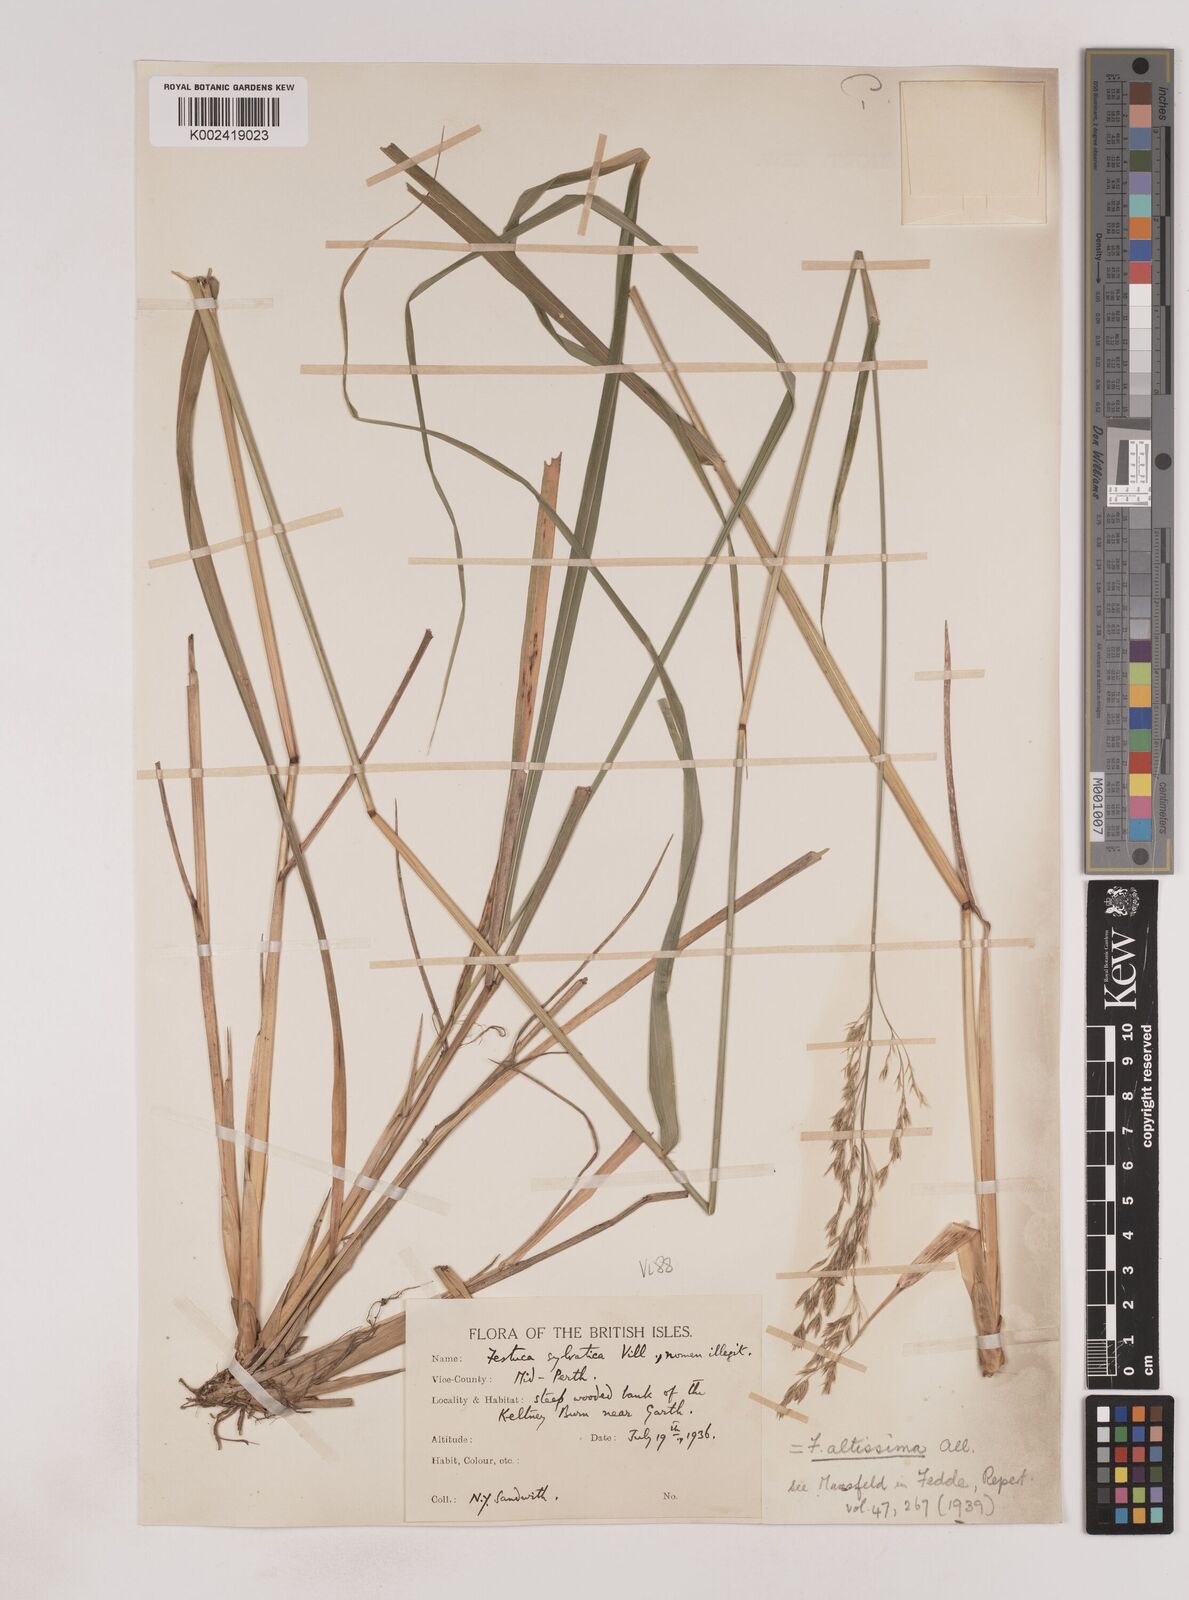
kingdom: Plantae
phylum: Tracheophyta
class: Liliopsida
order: Poales
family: Poaceae
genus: Festuca
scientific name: Festuca drymeja
